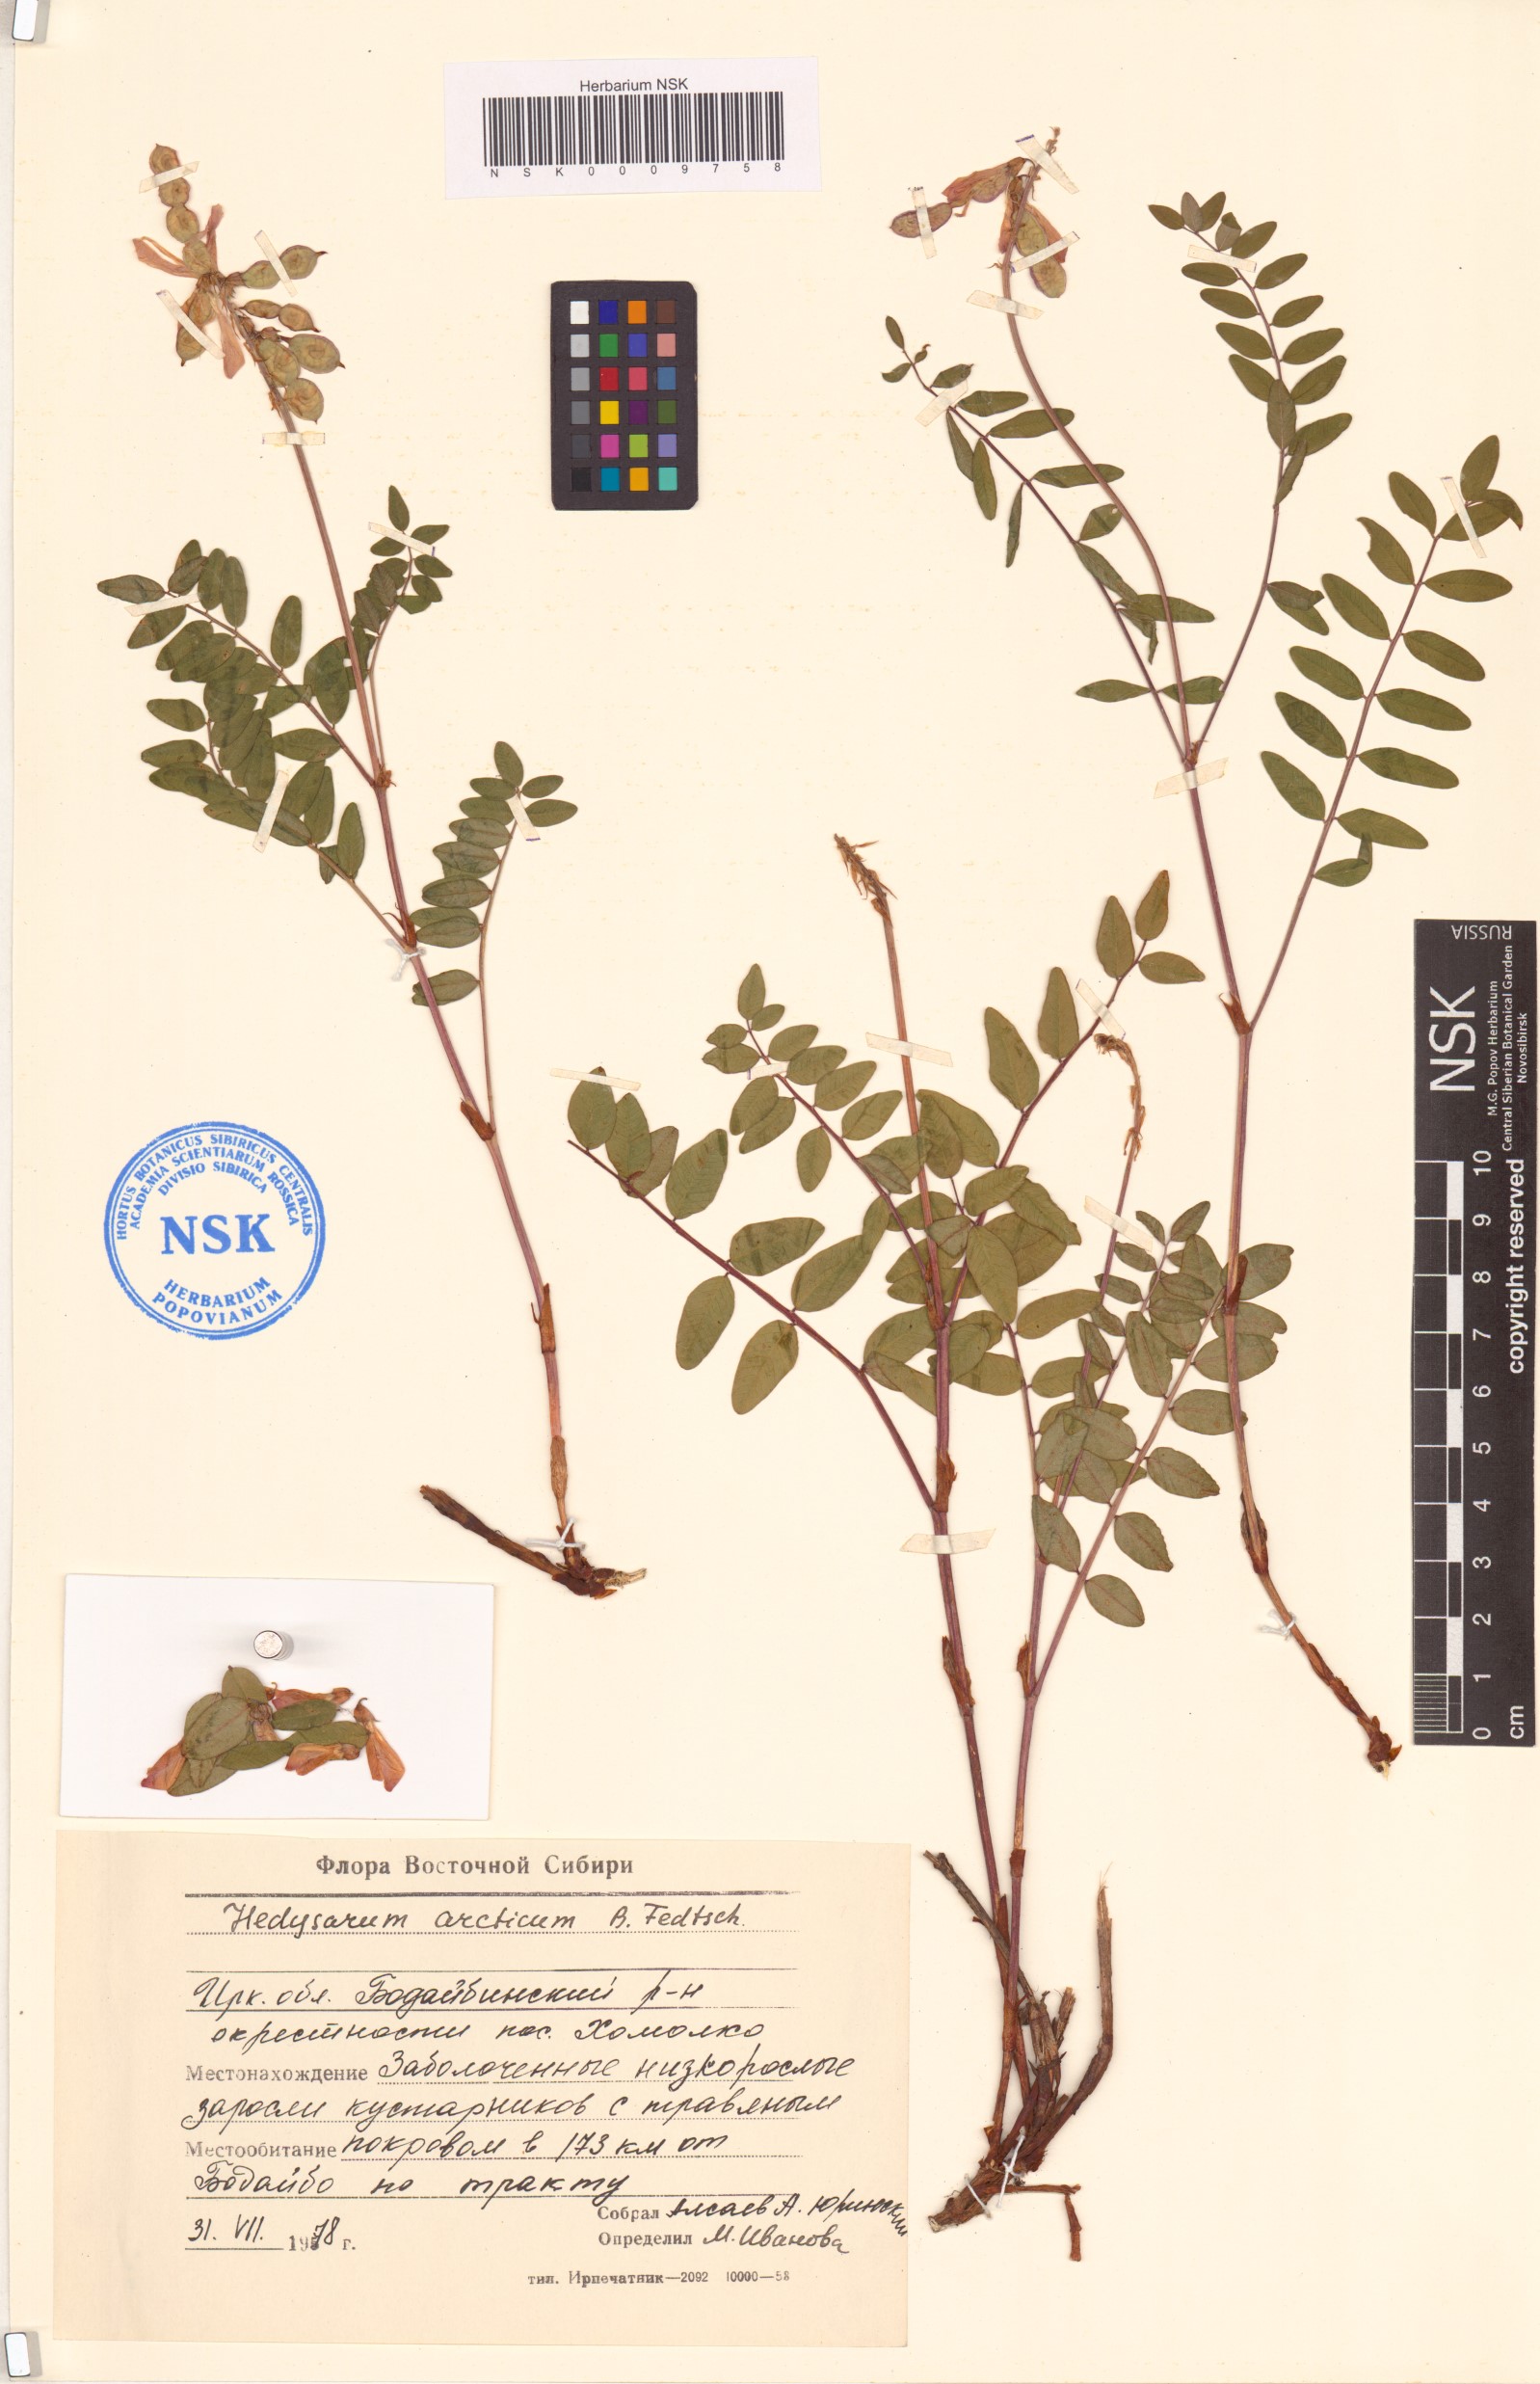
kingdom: Plantae
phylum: Tracheophyta
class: Magnoliopsida
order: Fabales
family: Fabaceae
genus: Hedysarum
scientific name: Hedysarum hedysaroides
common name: Alpine french-honeysuckle
